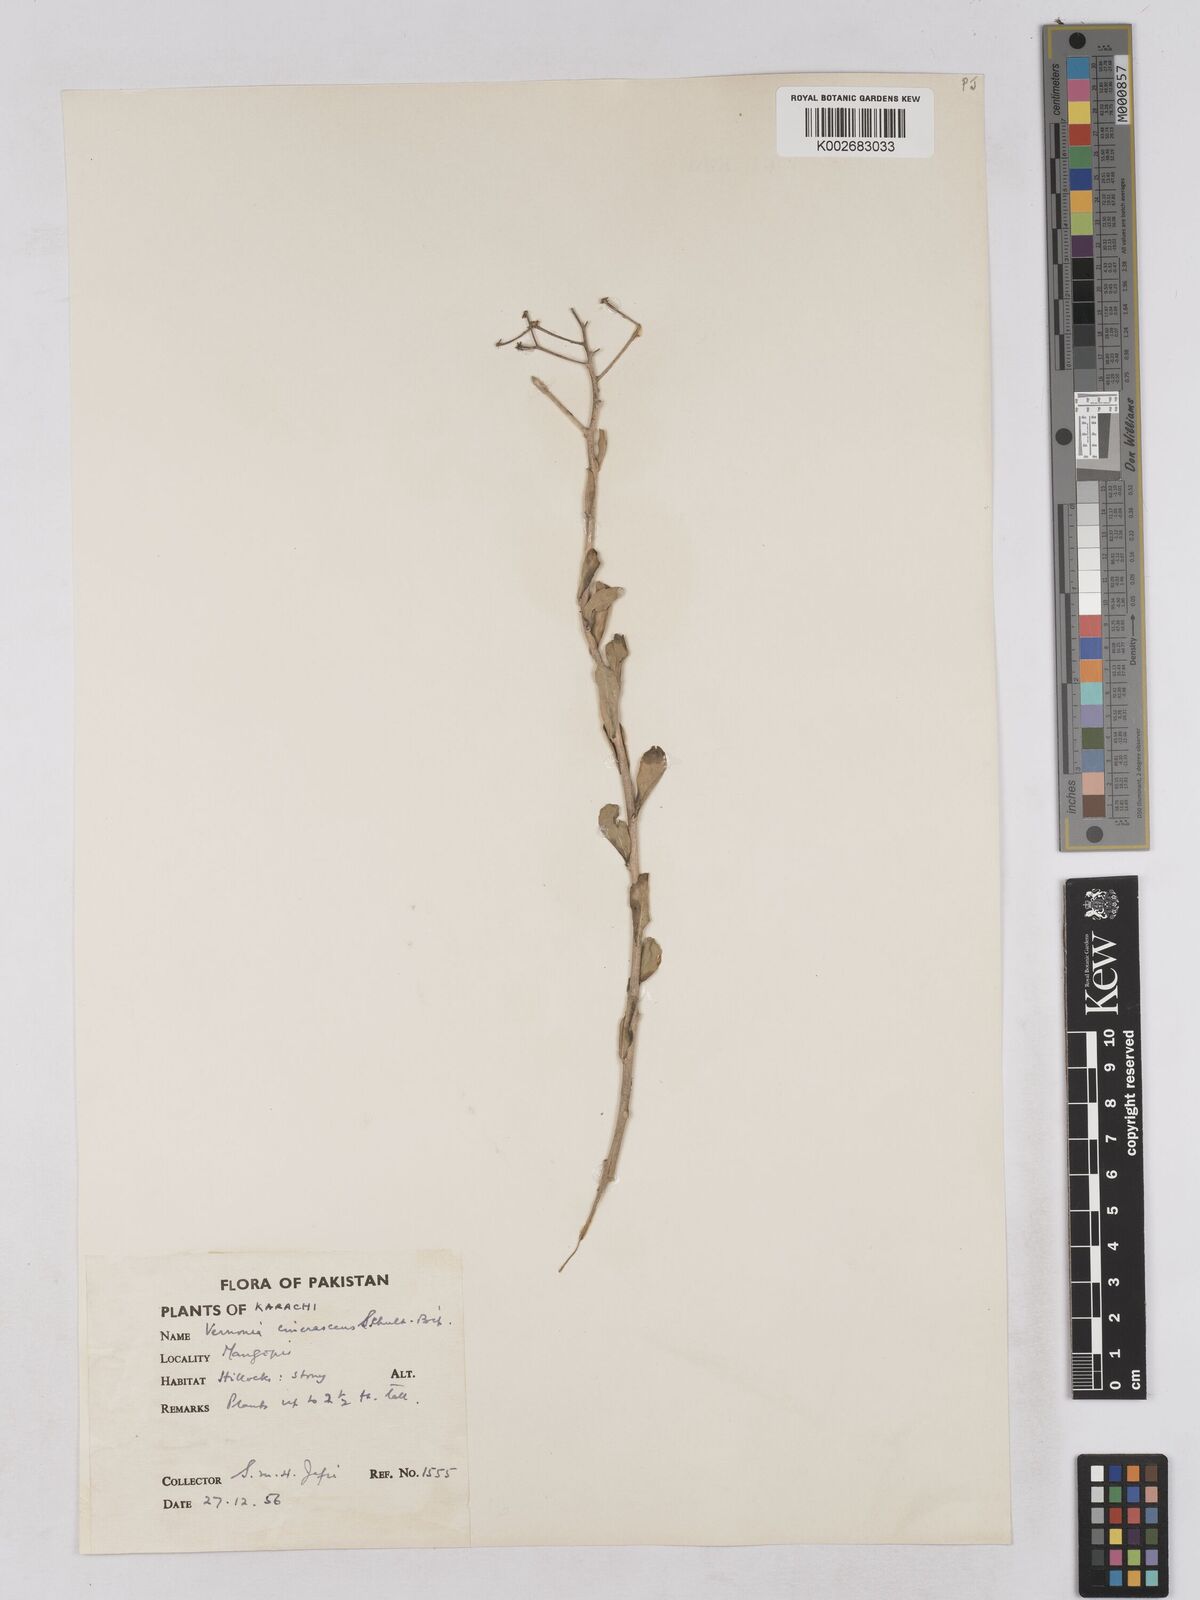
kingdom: Plantae
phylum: Tracheophyta
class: Magnoliopsida
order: Asterales
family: Asteraceae
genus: Orbivestus
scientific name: Orbivestus cinerascens
